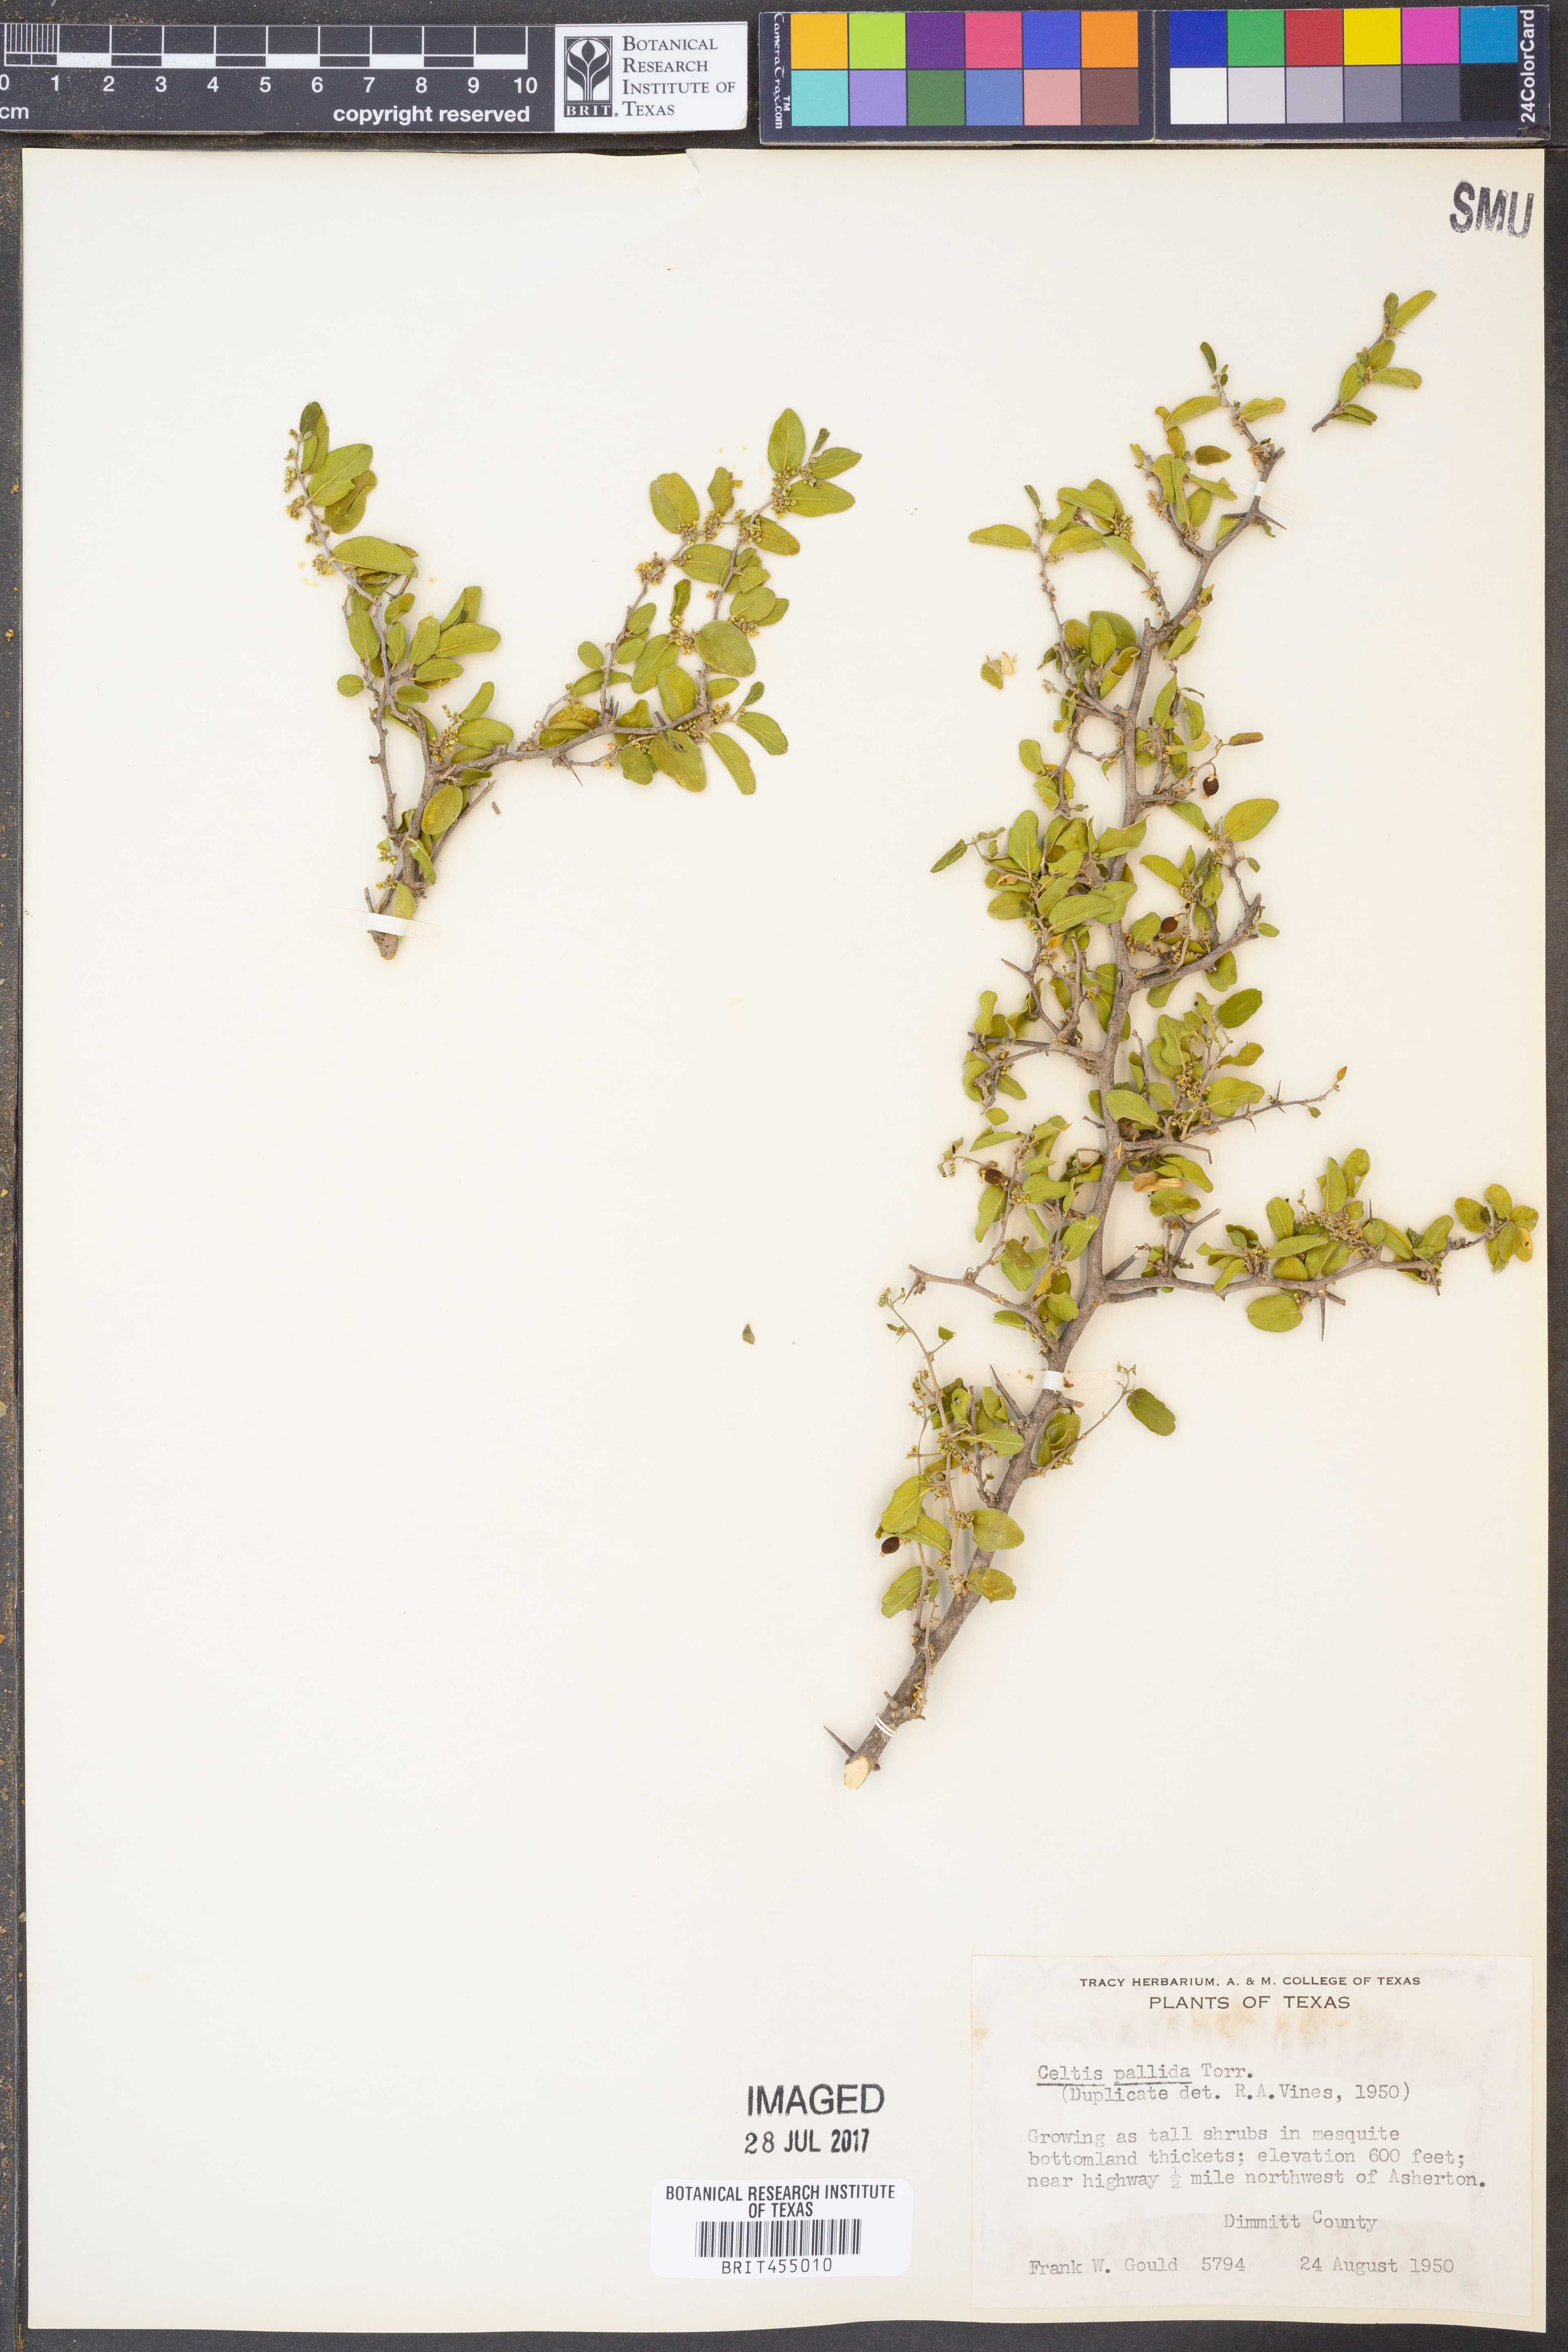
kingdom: Plantae
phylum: Tracheophyta
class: Magnoliopsida
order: Rosales
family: Cannabaceae
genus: Celtis
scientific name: Celtis pallida
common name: Desert hackberry
